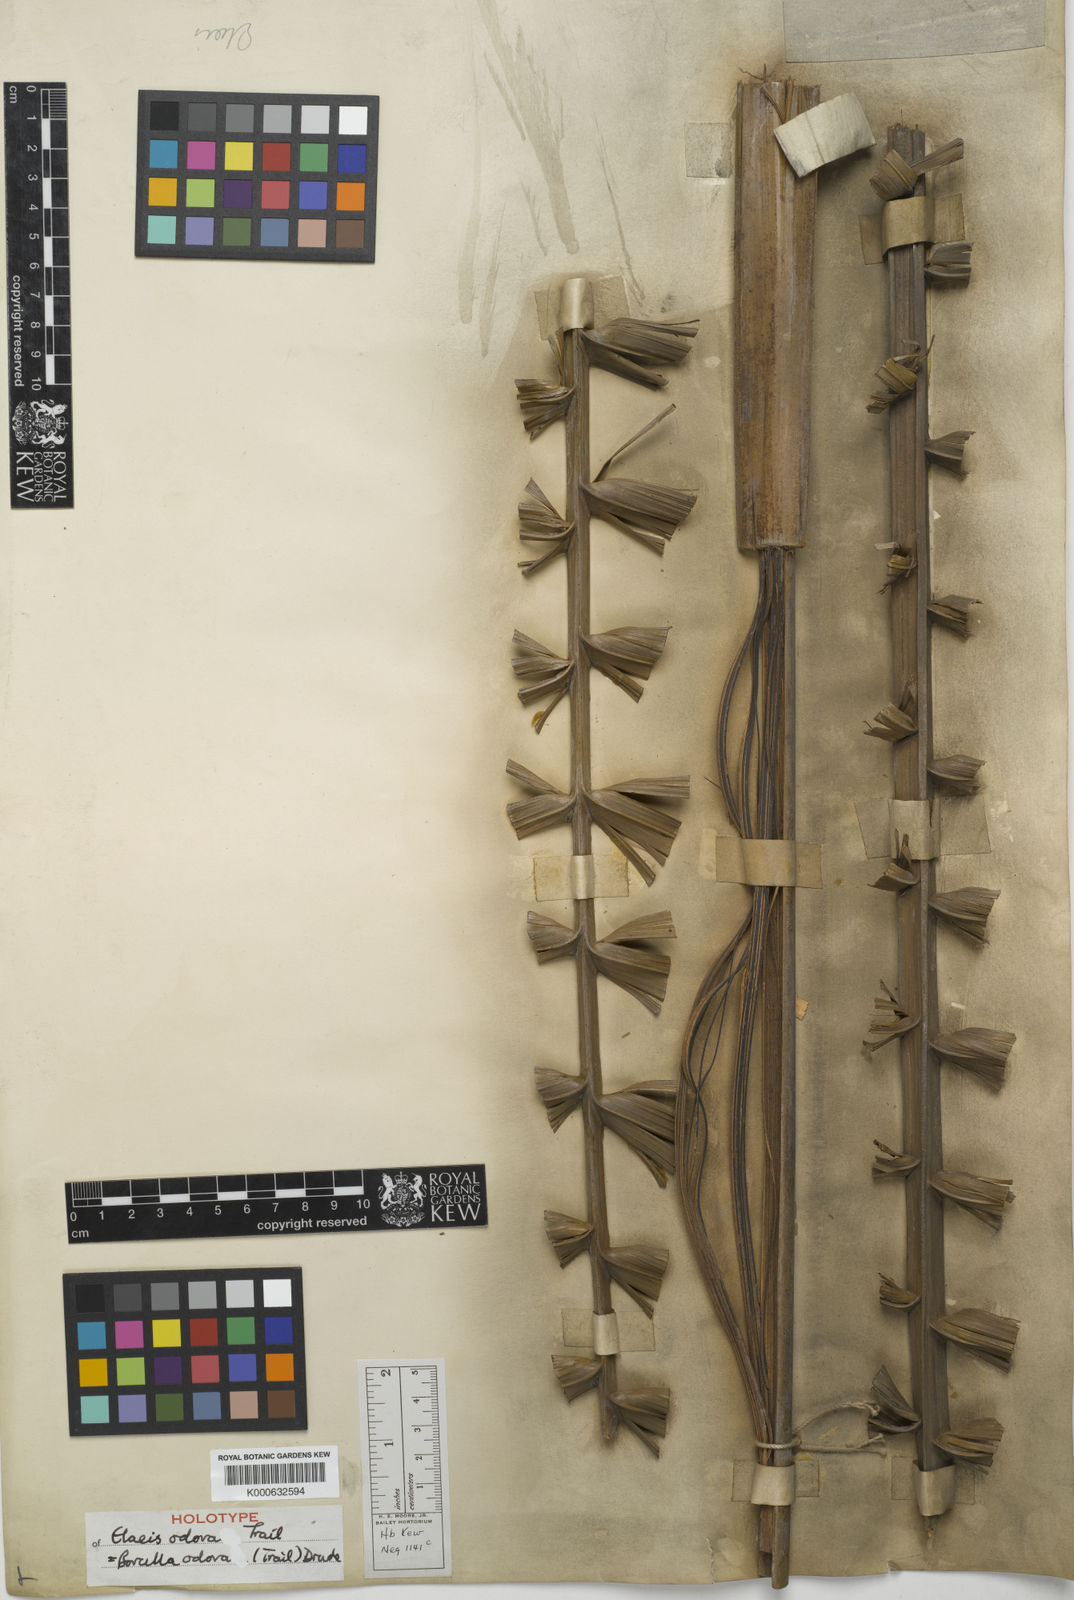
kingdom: Plantae
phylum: Tracheophyta
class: Liliopsida
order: Arecales
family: Arecaceae
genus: Barcella
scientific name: Barcella odora
